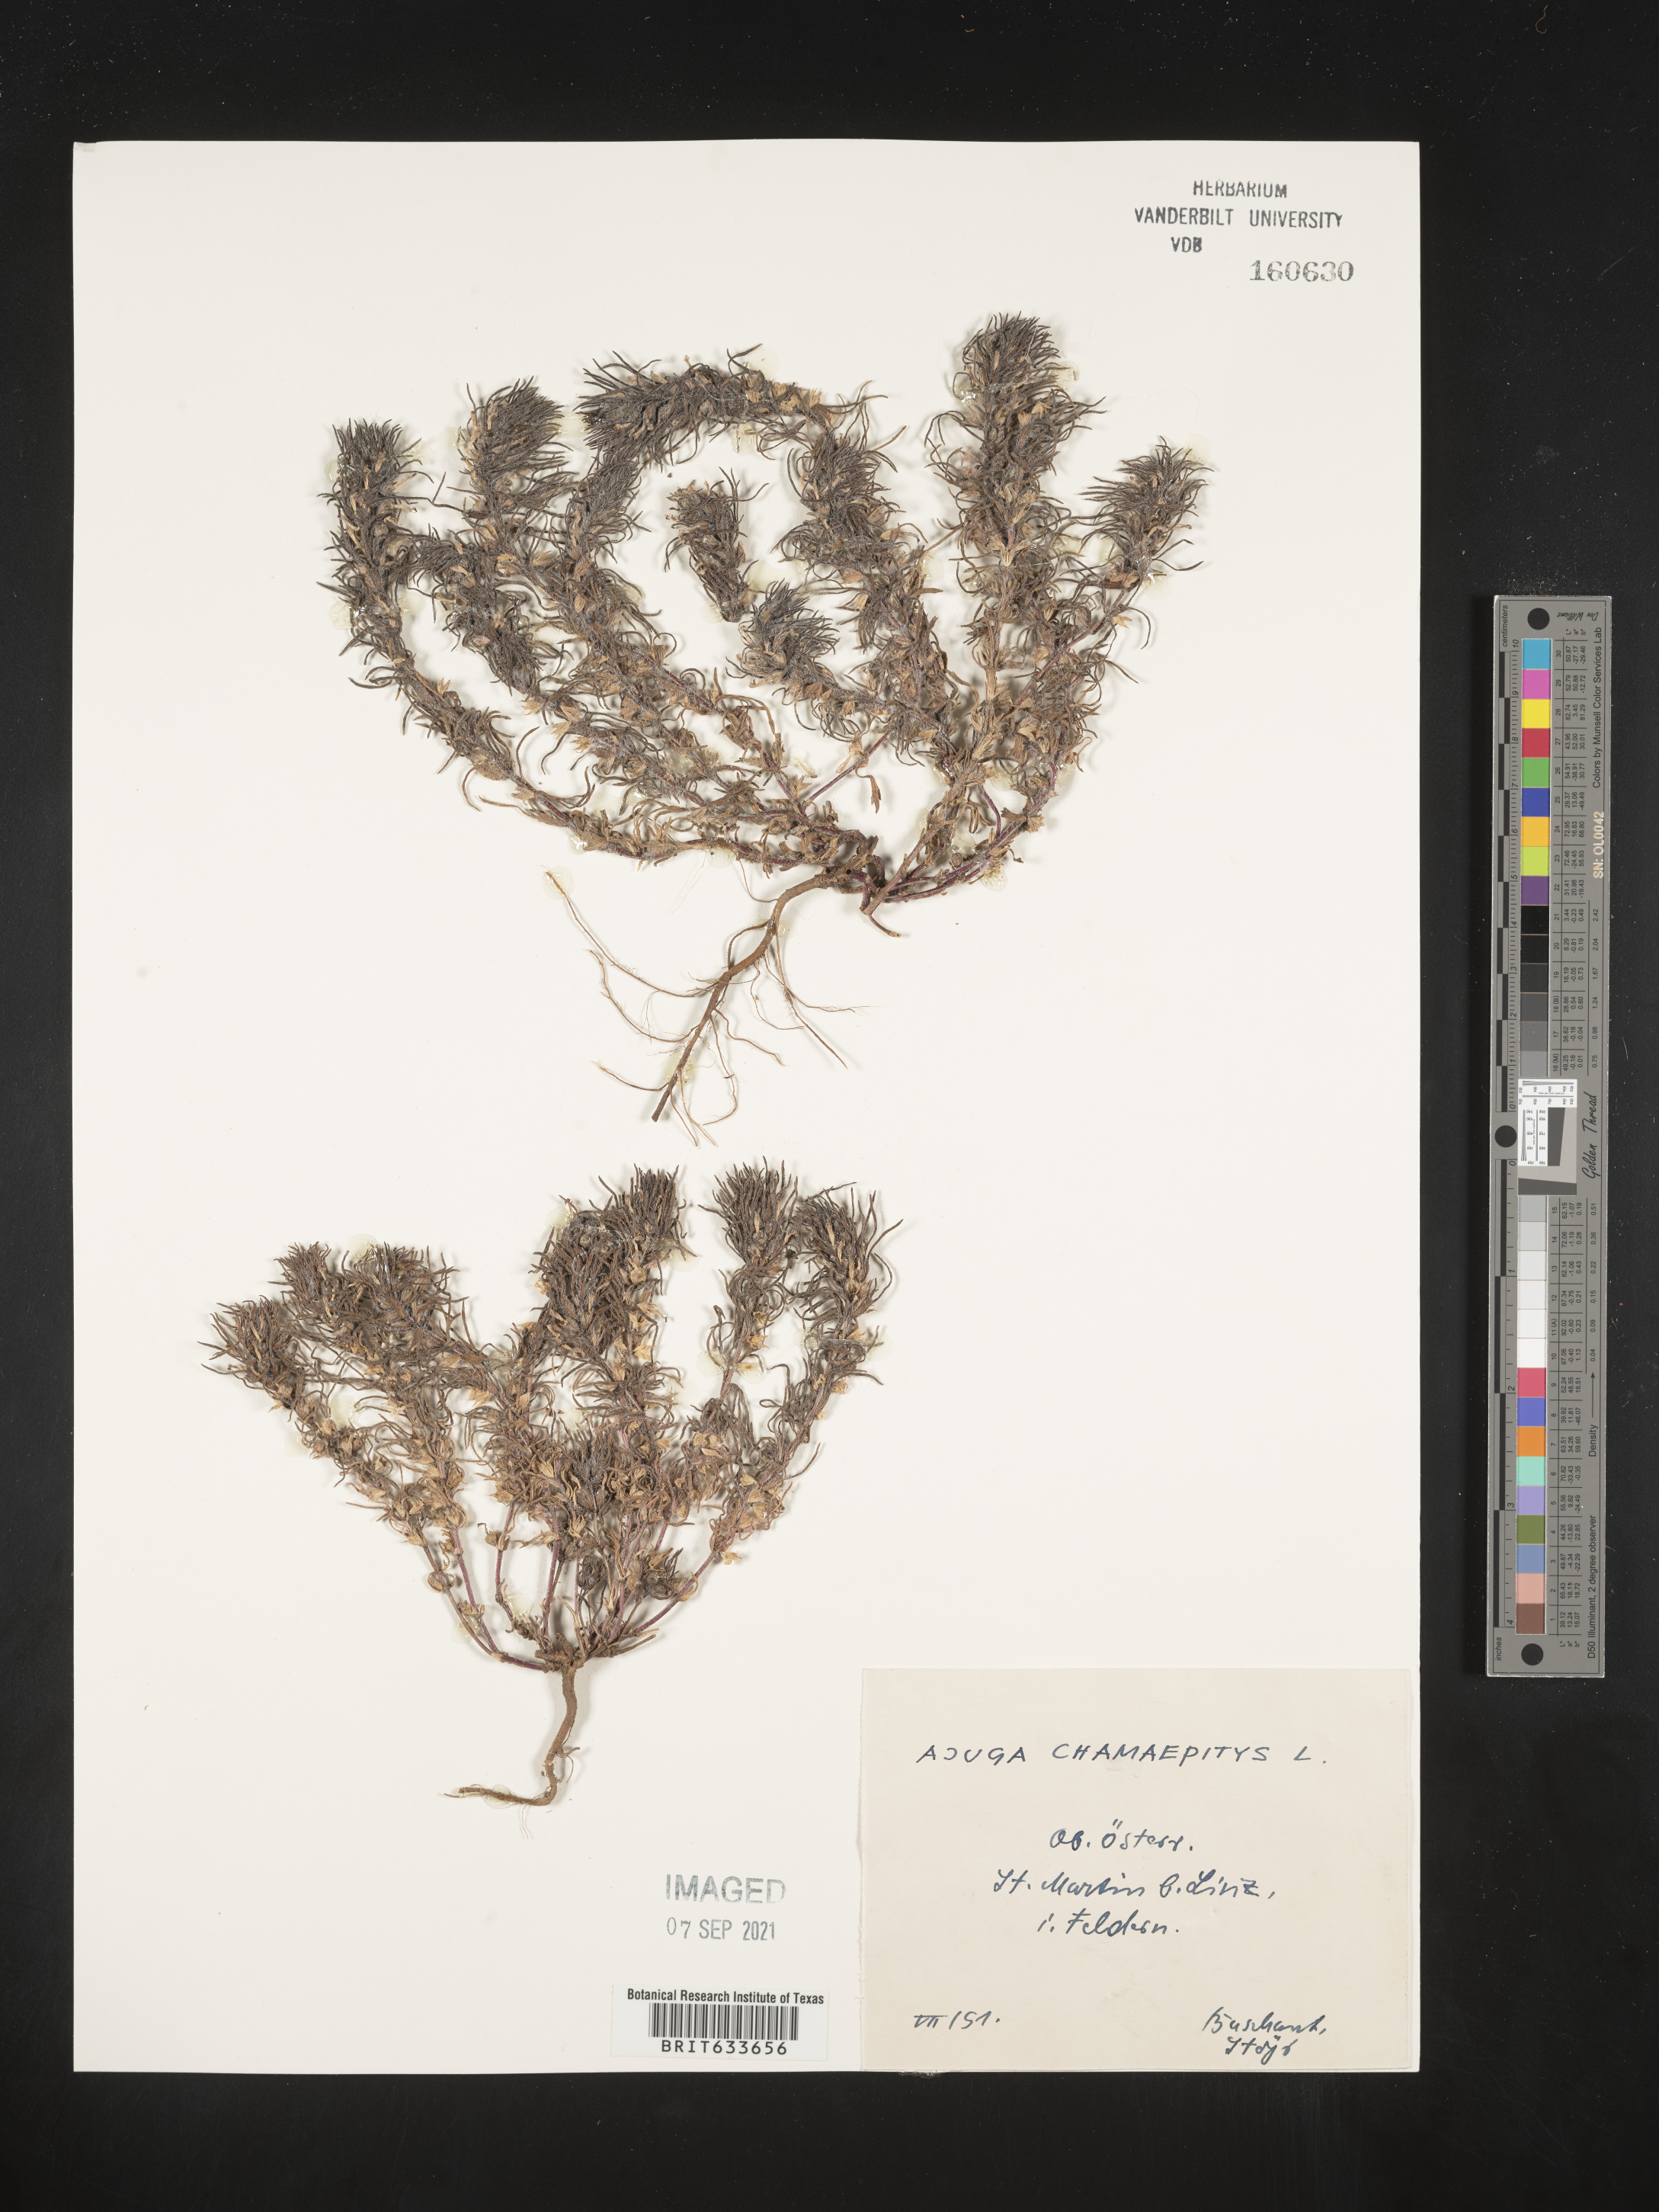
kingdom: Plantae
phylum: Tracheophyta
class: Magnoliopsida
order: Lamiales
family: Lamiaceae
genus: Ajuga
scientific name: Ajuga
